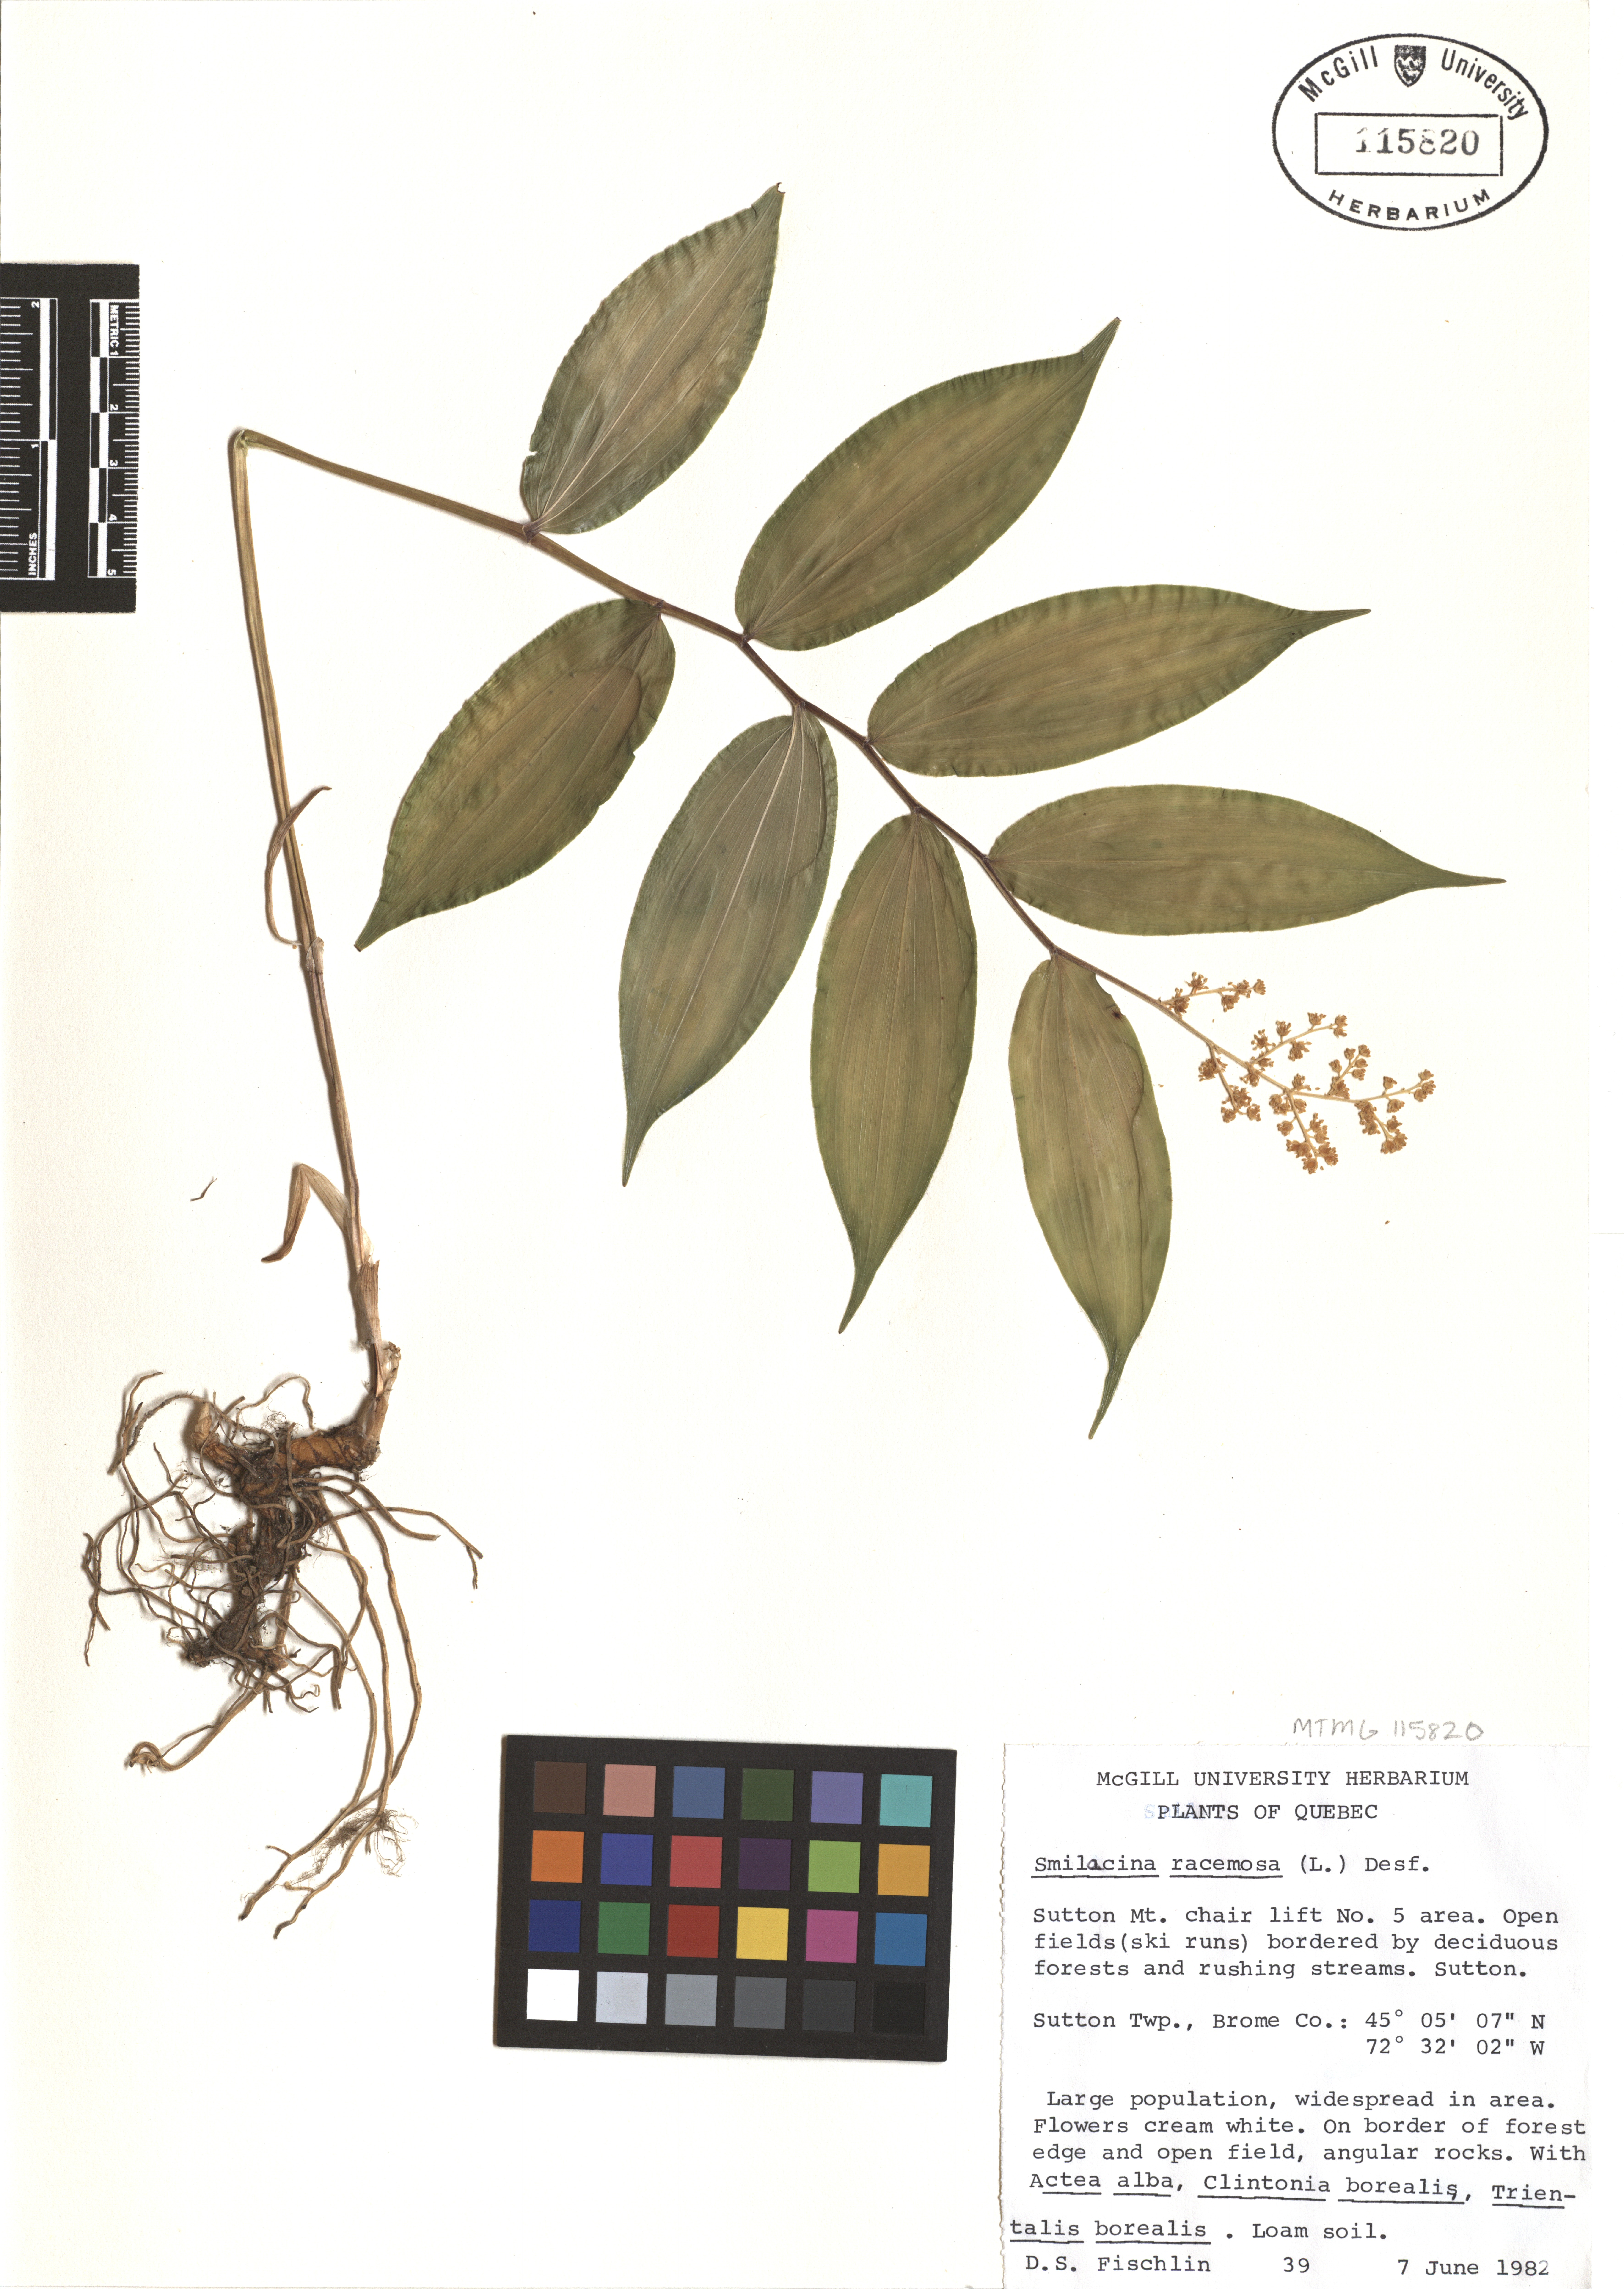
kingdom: Plantae
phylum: Tracheophyta
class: Liliopsida
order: Asparagales
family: Asparagaceae
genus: Maianthemum
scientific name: Maianthemum racemosum
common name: False spikenard
